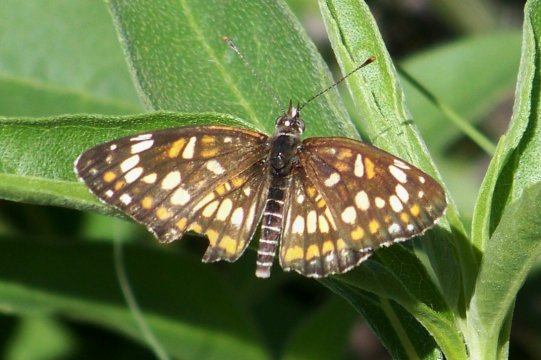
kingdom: Animalia
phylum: Arthropoda
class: Insecta
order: Lepidoptera
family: Nymphalidae
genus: Thessalia
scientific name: Thessalia theona
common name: Theona Checkerspot
